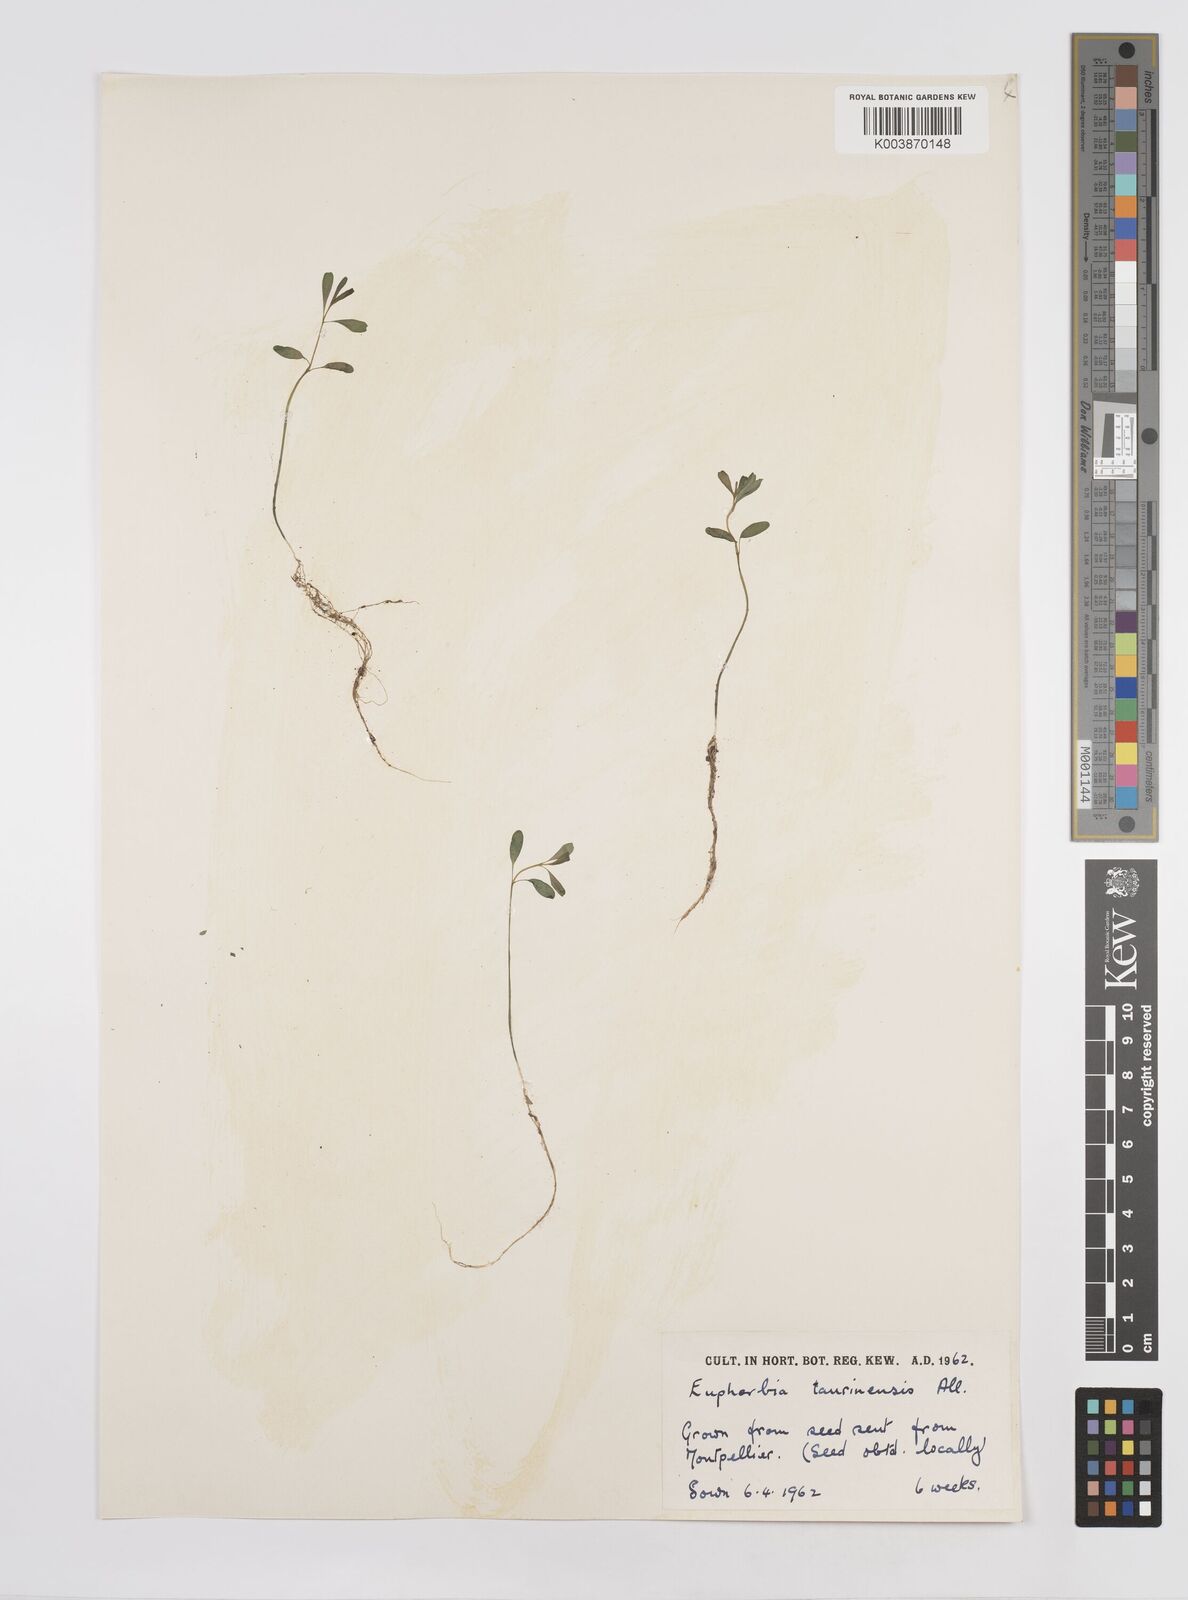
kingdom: Plantae
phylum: Tracheophyta
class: Magnoliopsida
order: Malpighiales
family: Euphorbiaceae
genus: Euphorbia
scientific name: Euphorbia taurinensis
